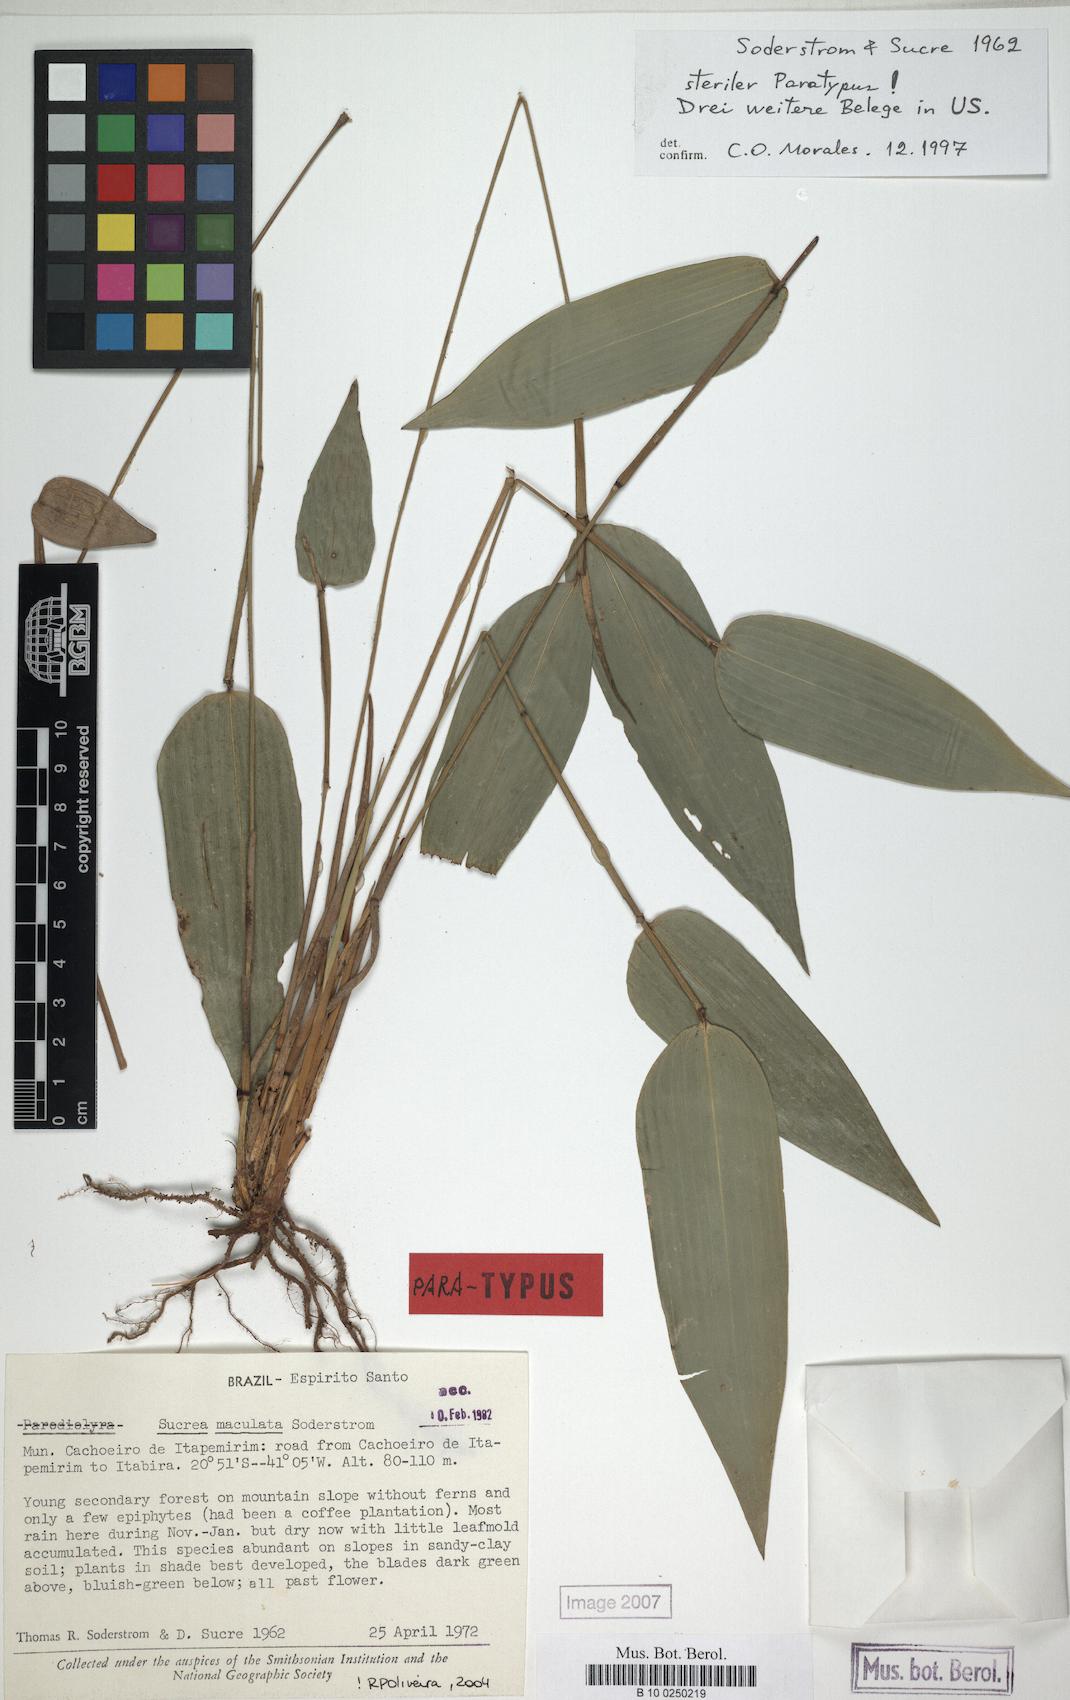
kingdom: Plantae
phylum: Tracheophyta
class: Liliopsida
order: Poales
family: Poaceae
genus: Raddia
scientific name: Raddia maculata
